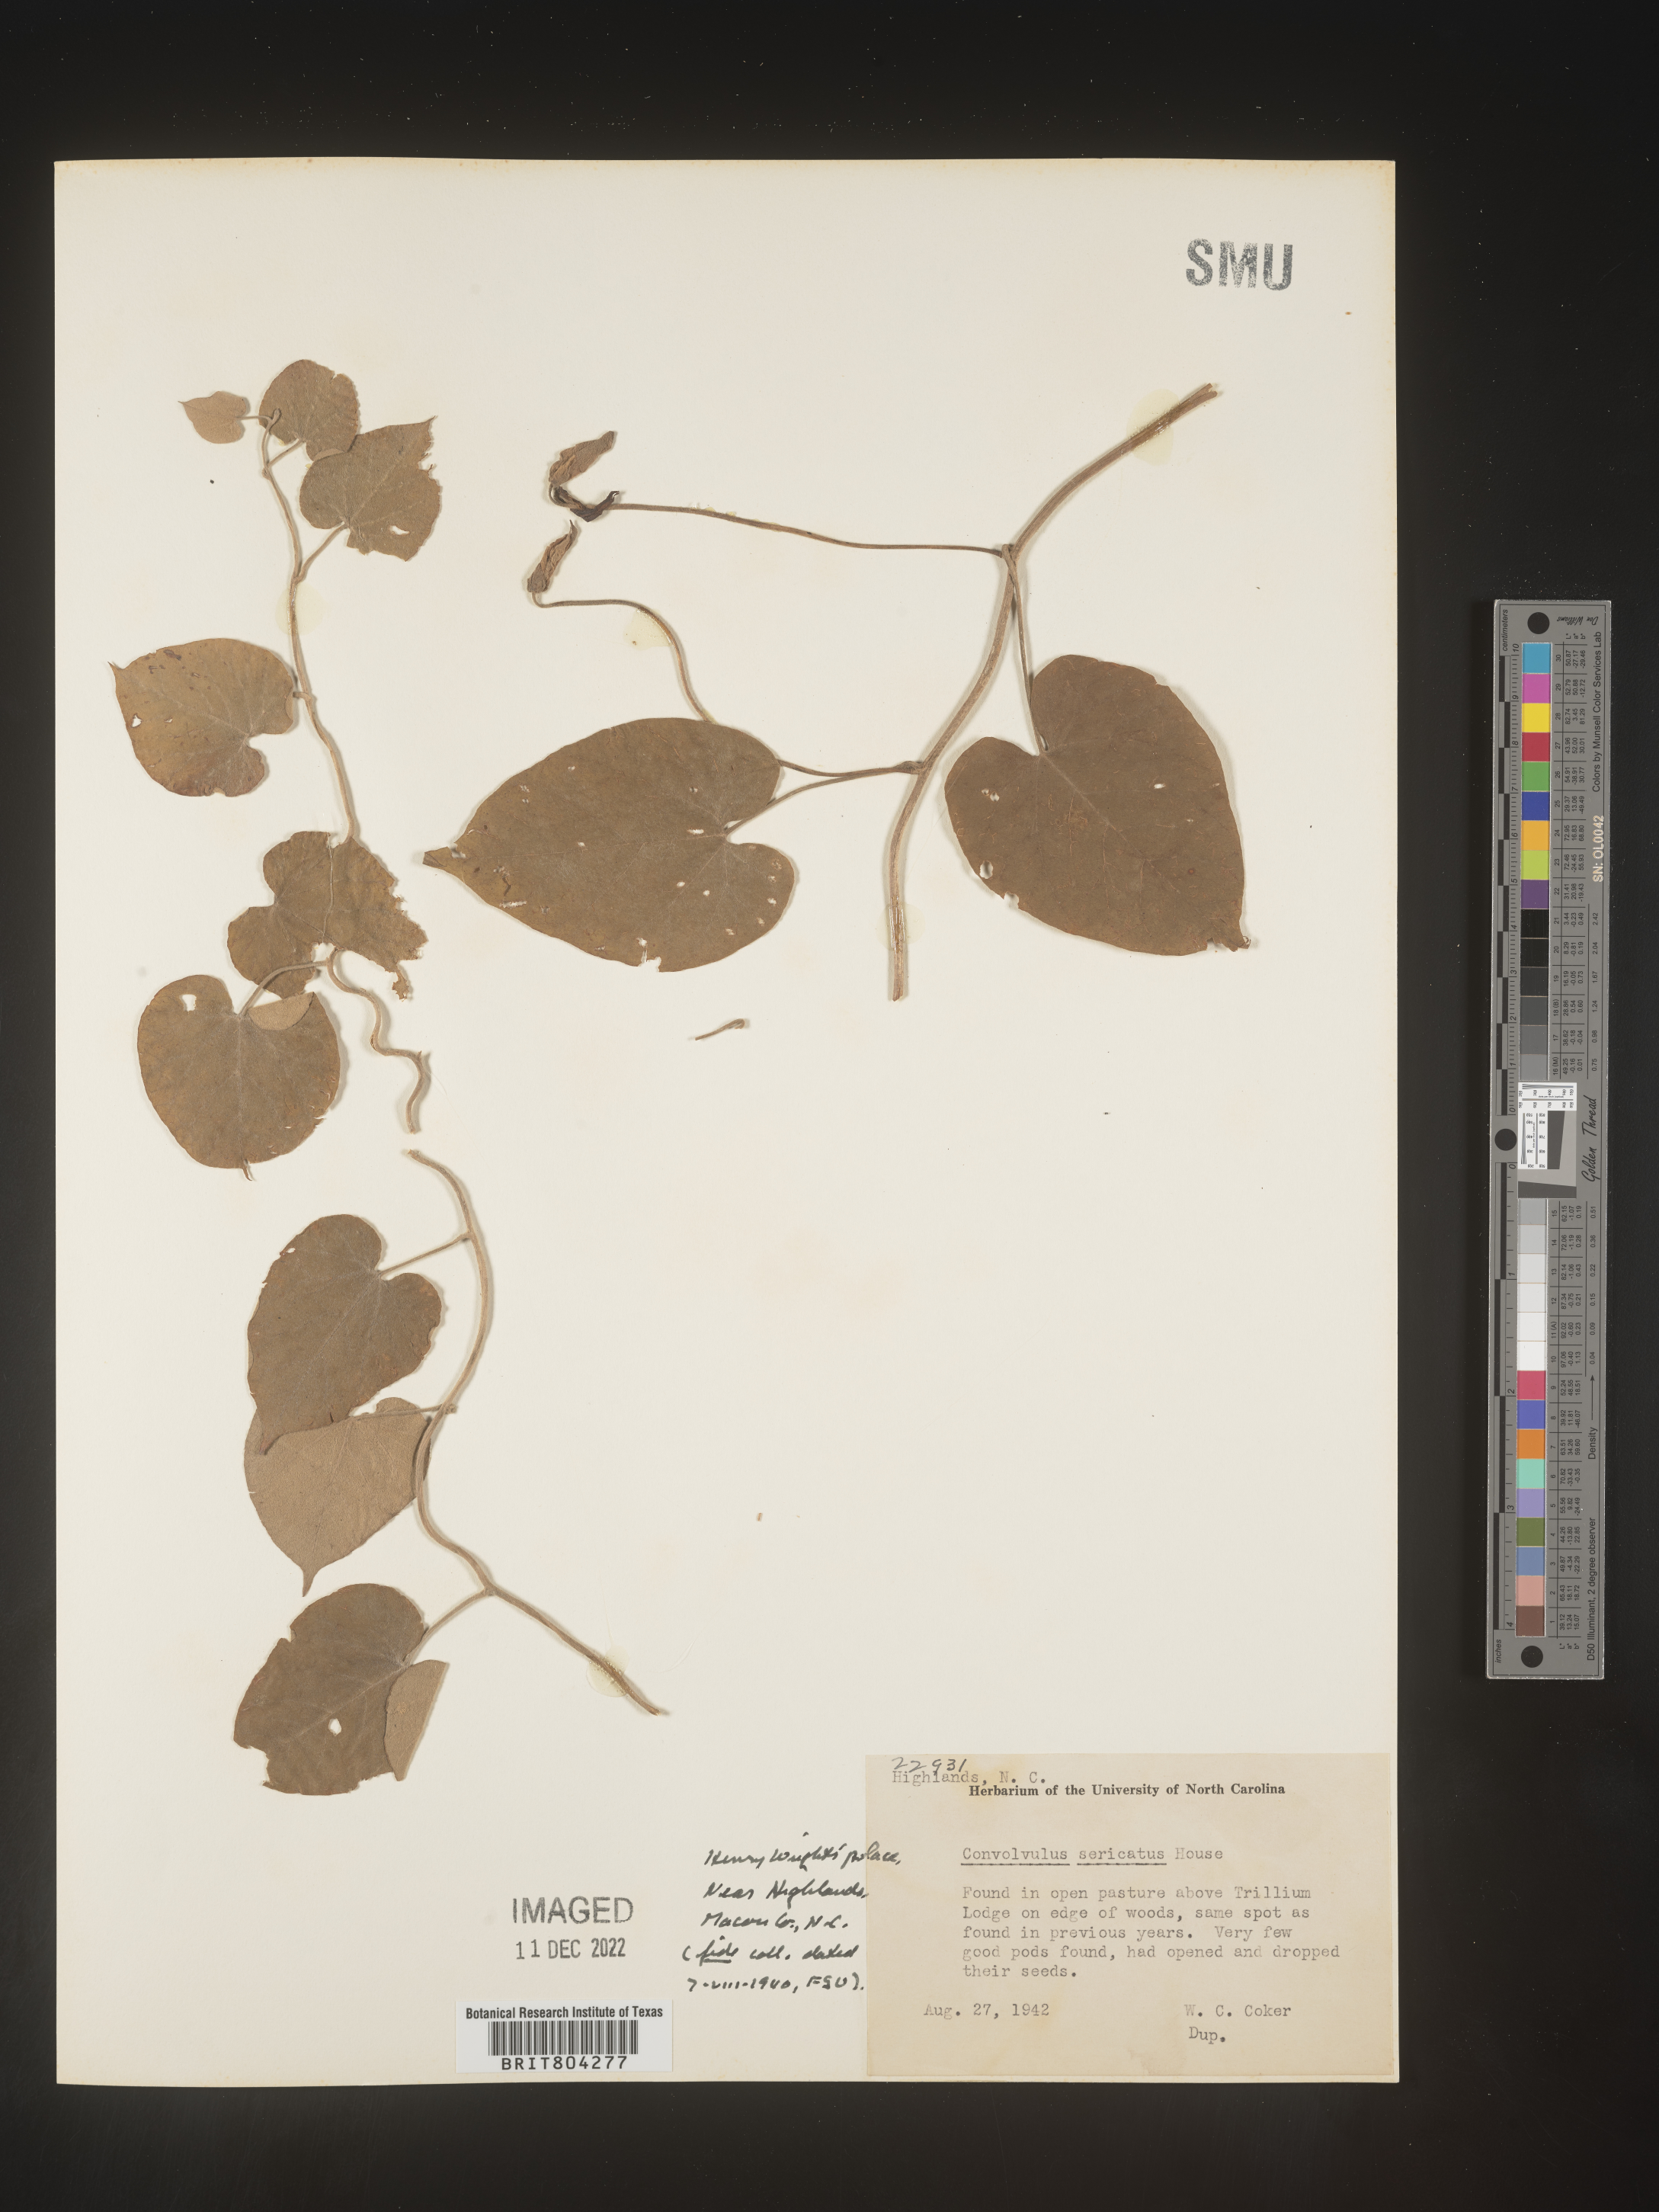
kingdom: Plantae
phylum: Tracheophyta
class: Magnoliopsida
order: Solanales
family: Convolvulaceae
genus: Calystegia
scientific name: Calystegia
